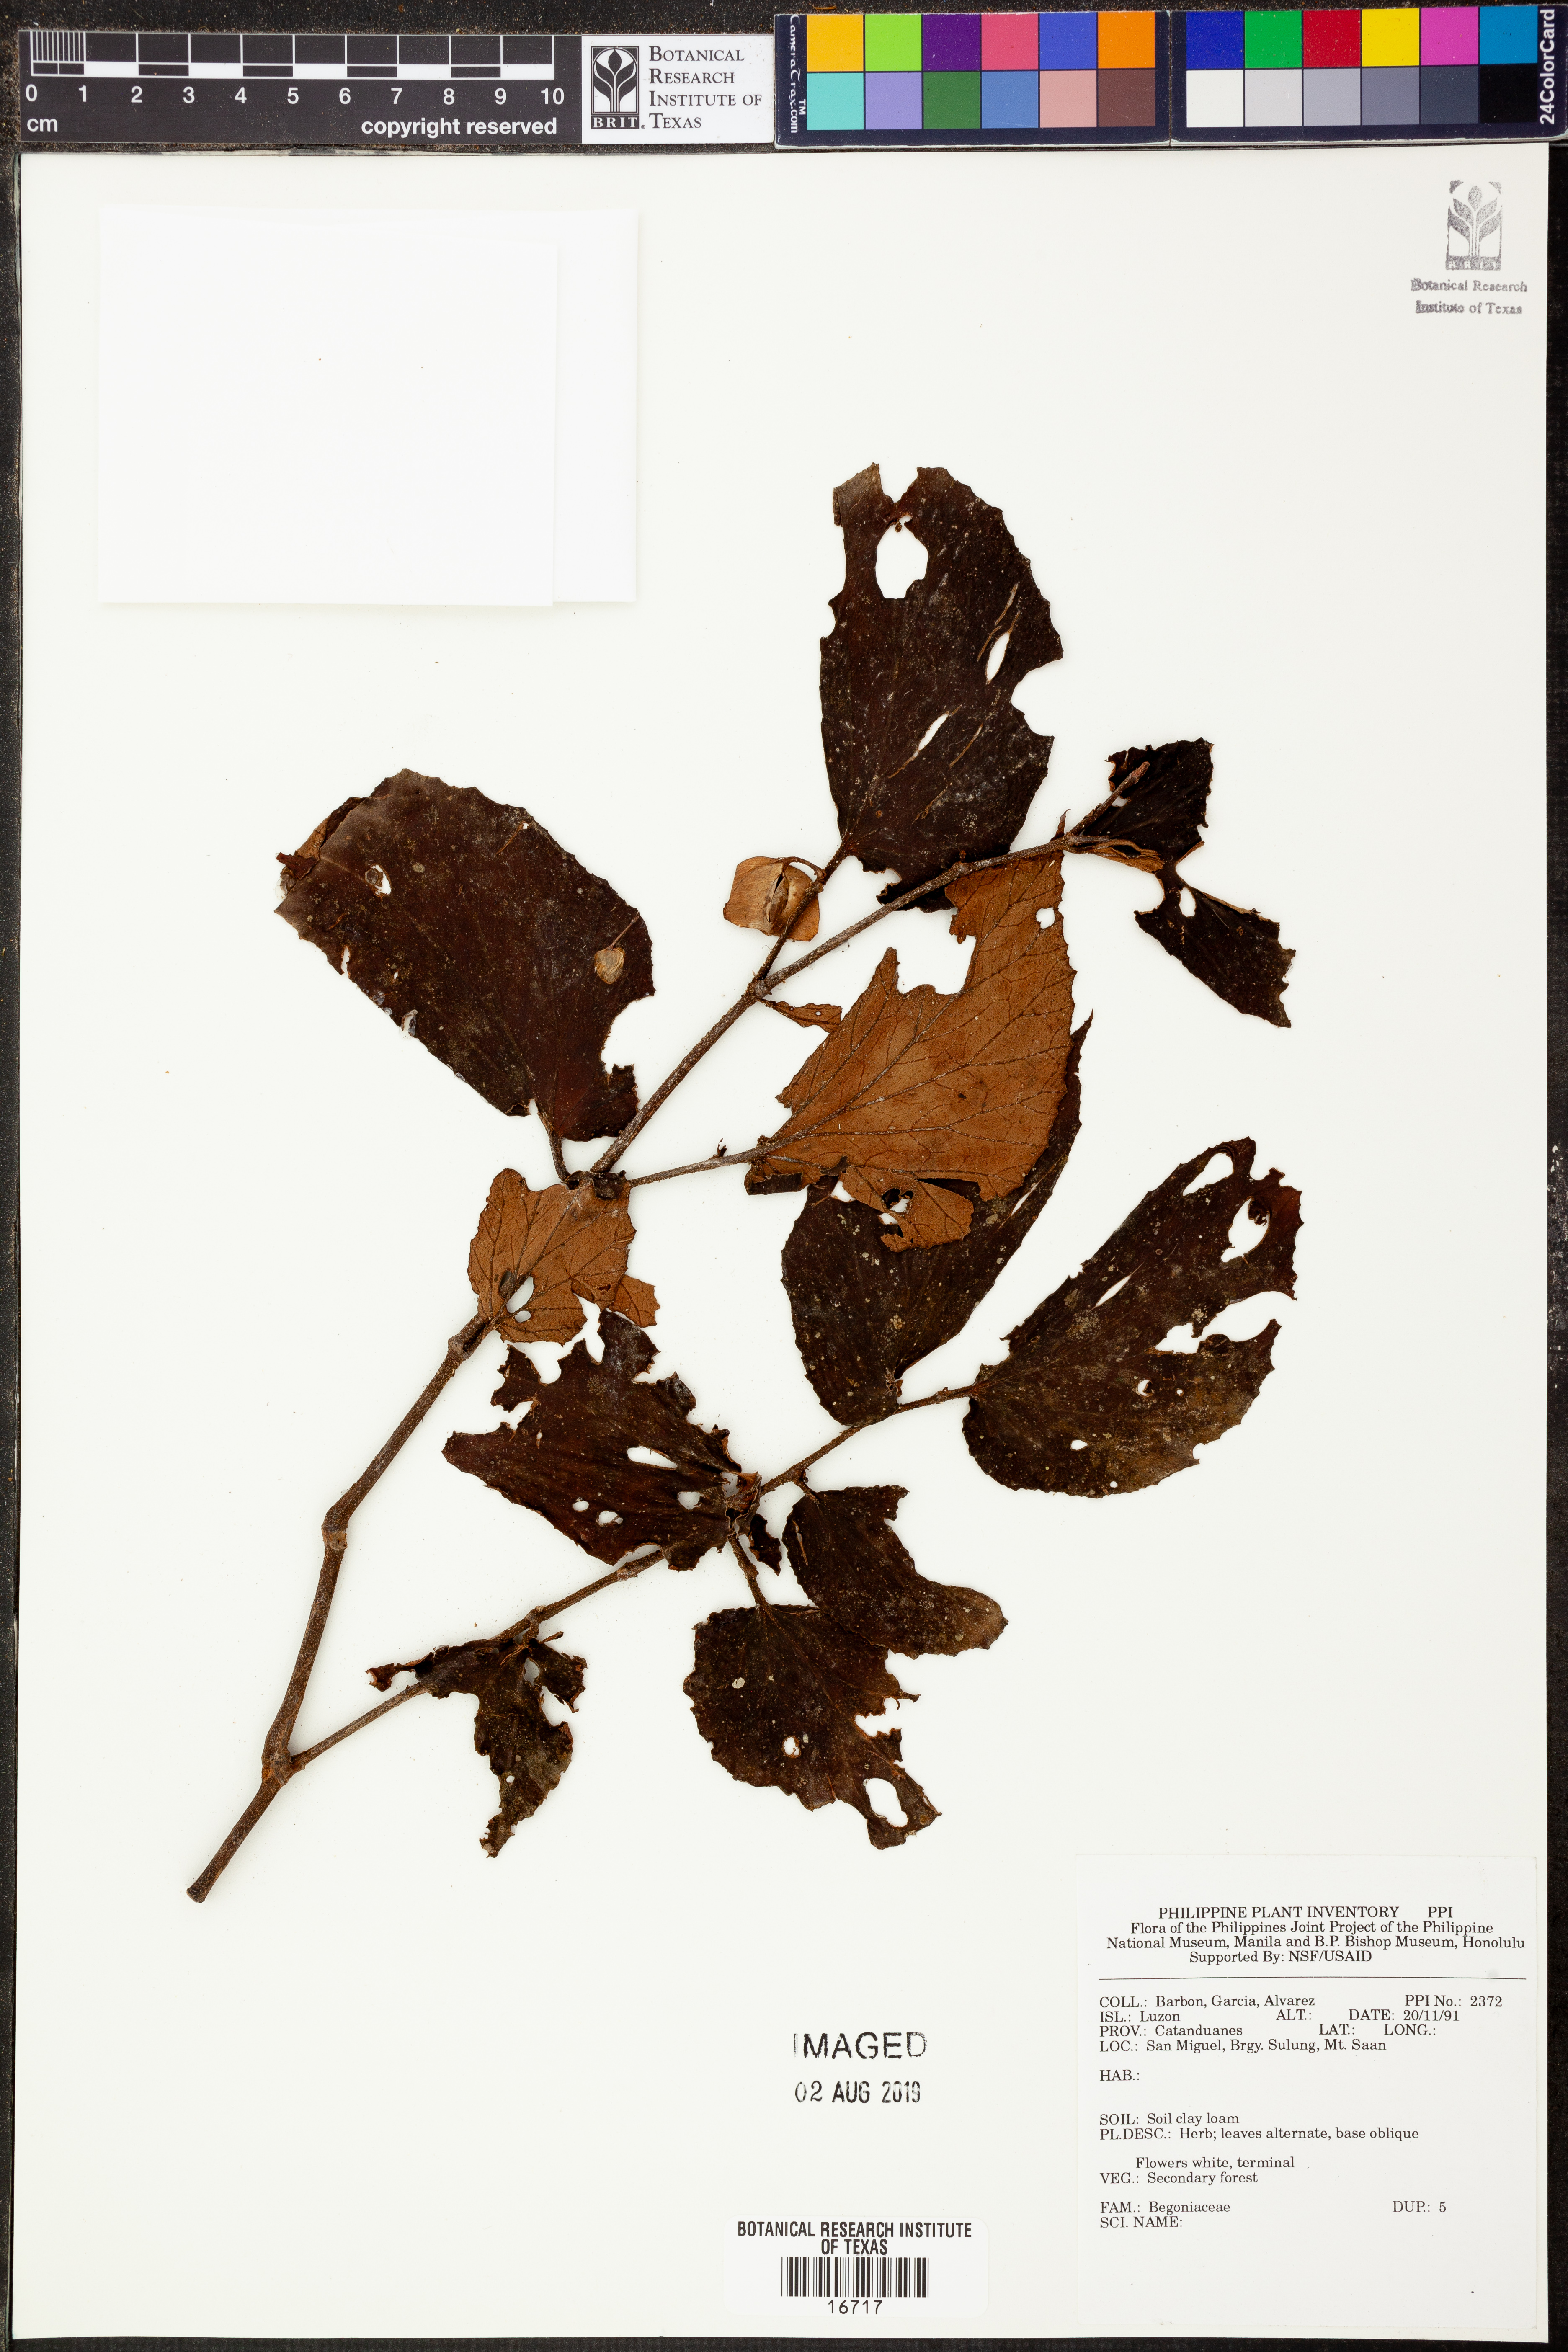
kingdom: Plantae
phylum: Tracheophyta
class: Magnoliopsida
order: Cucurbitales
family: Begoniaceae
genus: Begonia
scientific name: Begonia
